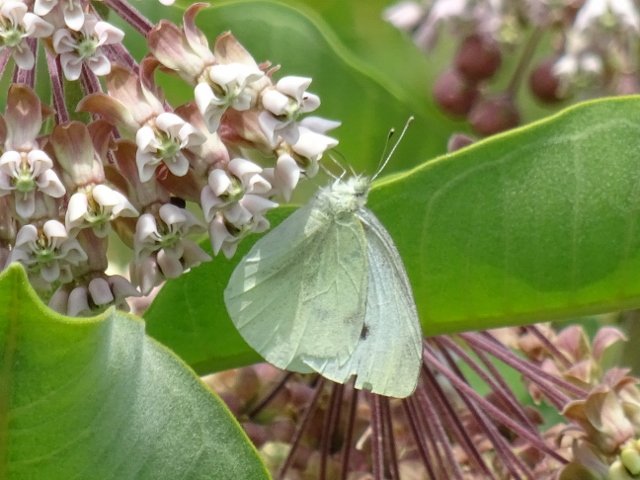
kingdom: Animalia
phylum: Arthropoda
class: Insecta
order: Lepidoptera
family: Pieridae
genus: Pieris
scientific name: Pieris rapae
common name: Cabbage White
